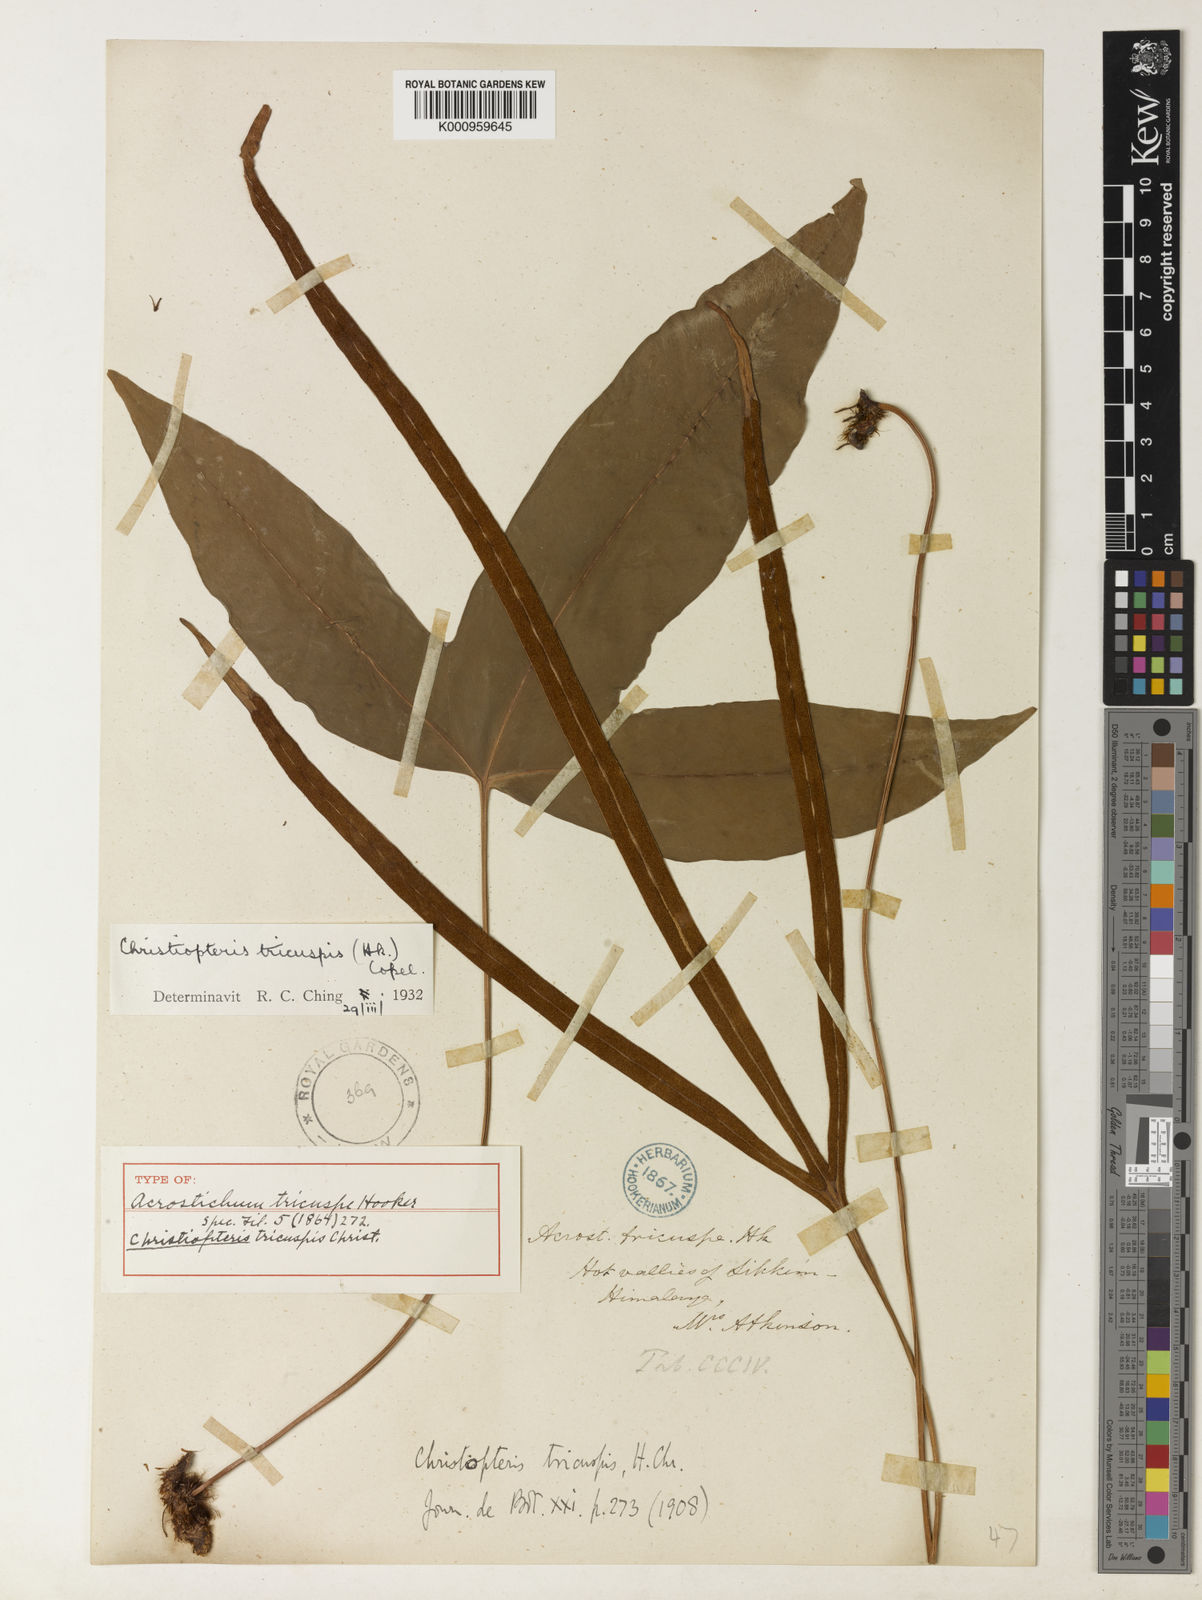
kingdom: Plantae
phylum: Tracheophyta
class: Polypodiopsida
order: Polypodiales
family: Polypodiaceae
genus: Drynaria
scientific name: Drynaria tricuspis
